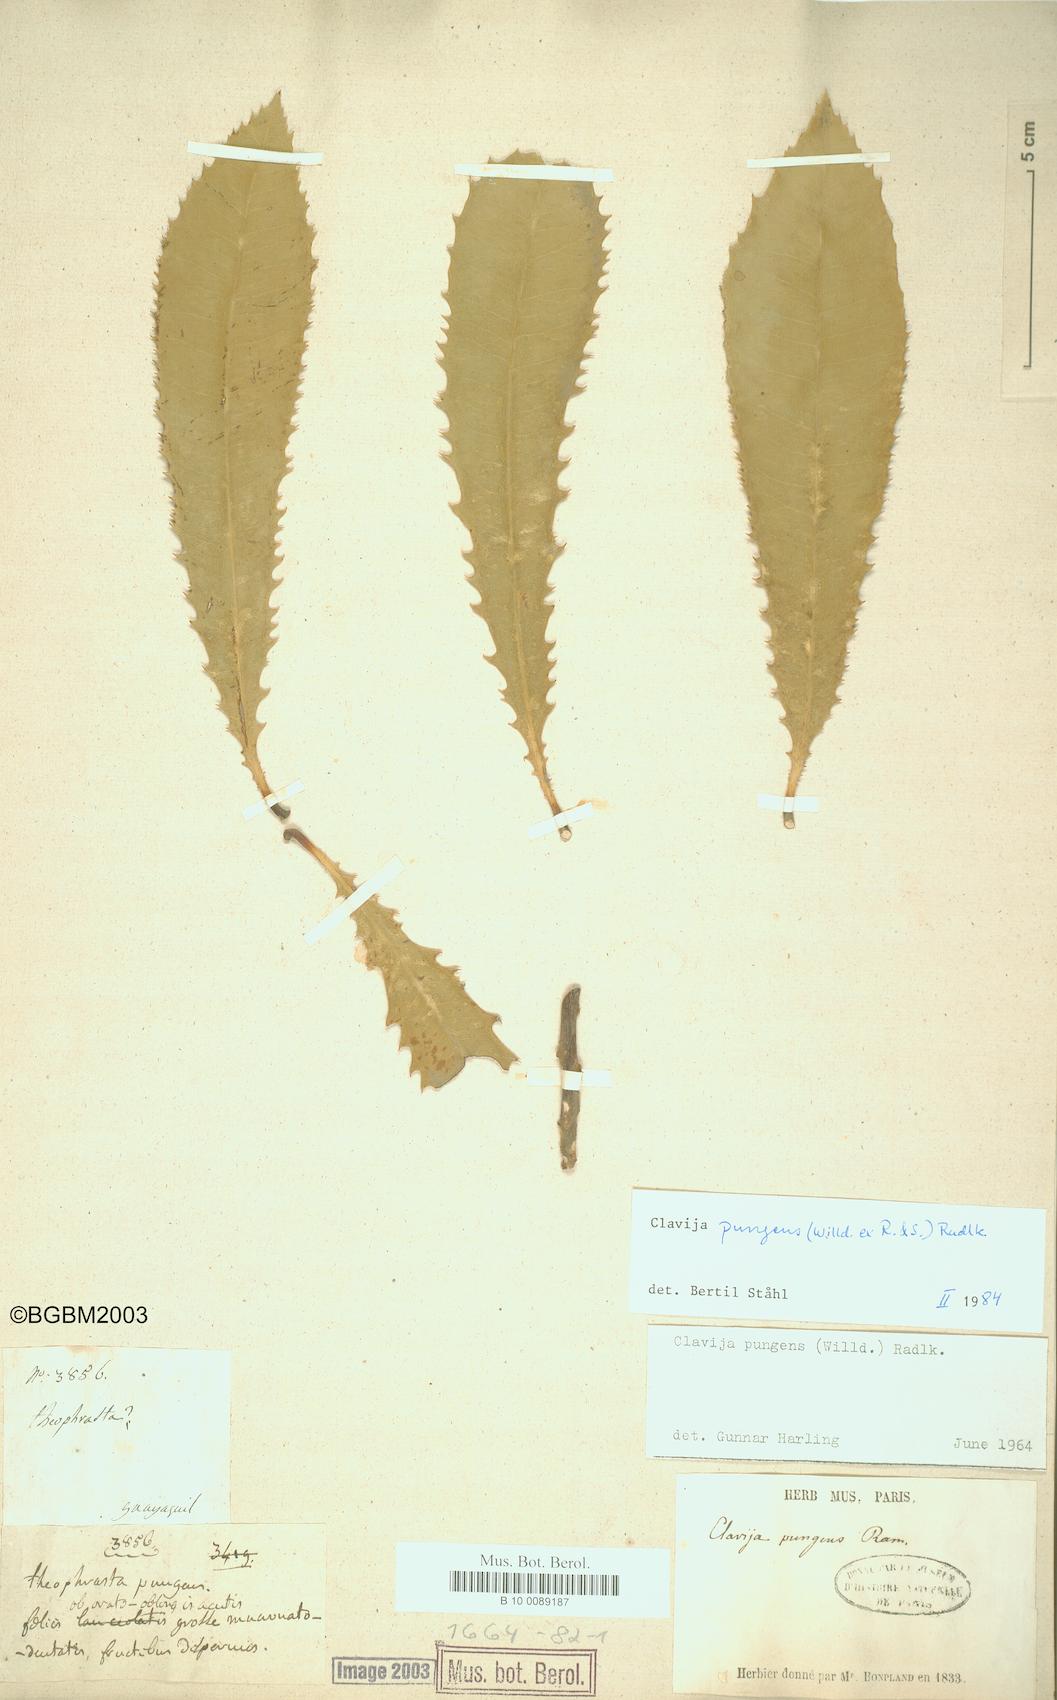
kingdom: Plantae
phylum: Tracheophyta
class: Magnoliopsida
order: Ericales
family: Primulaceae
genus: Clavija
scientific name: Clavija pungens
